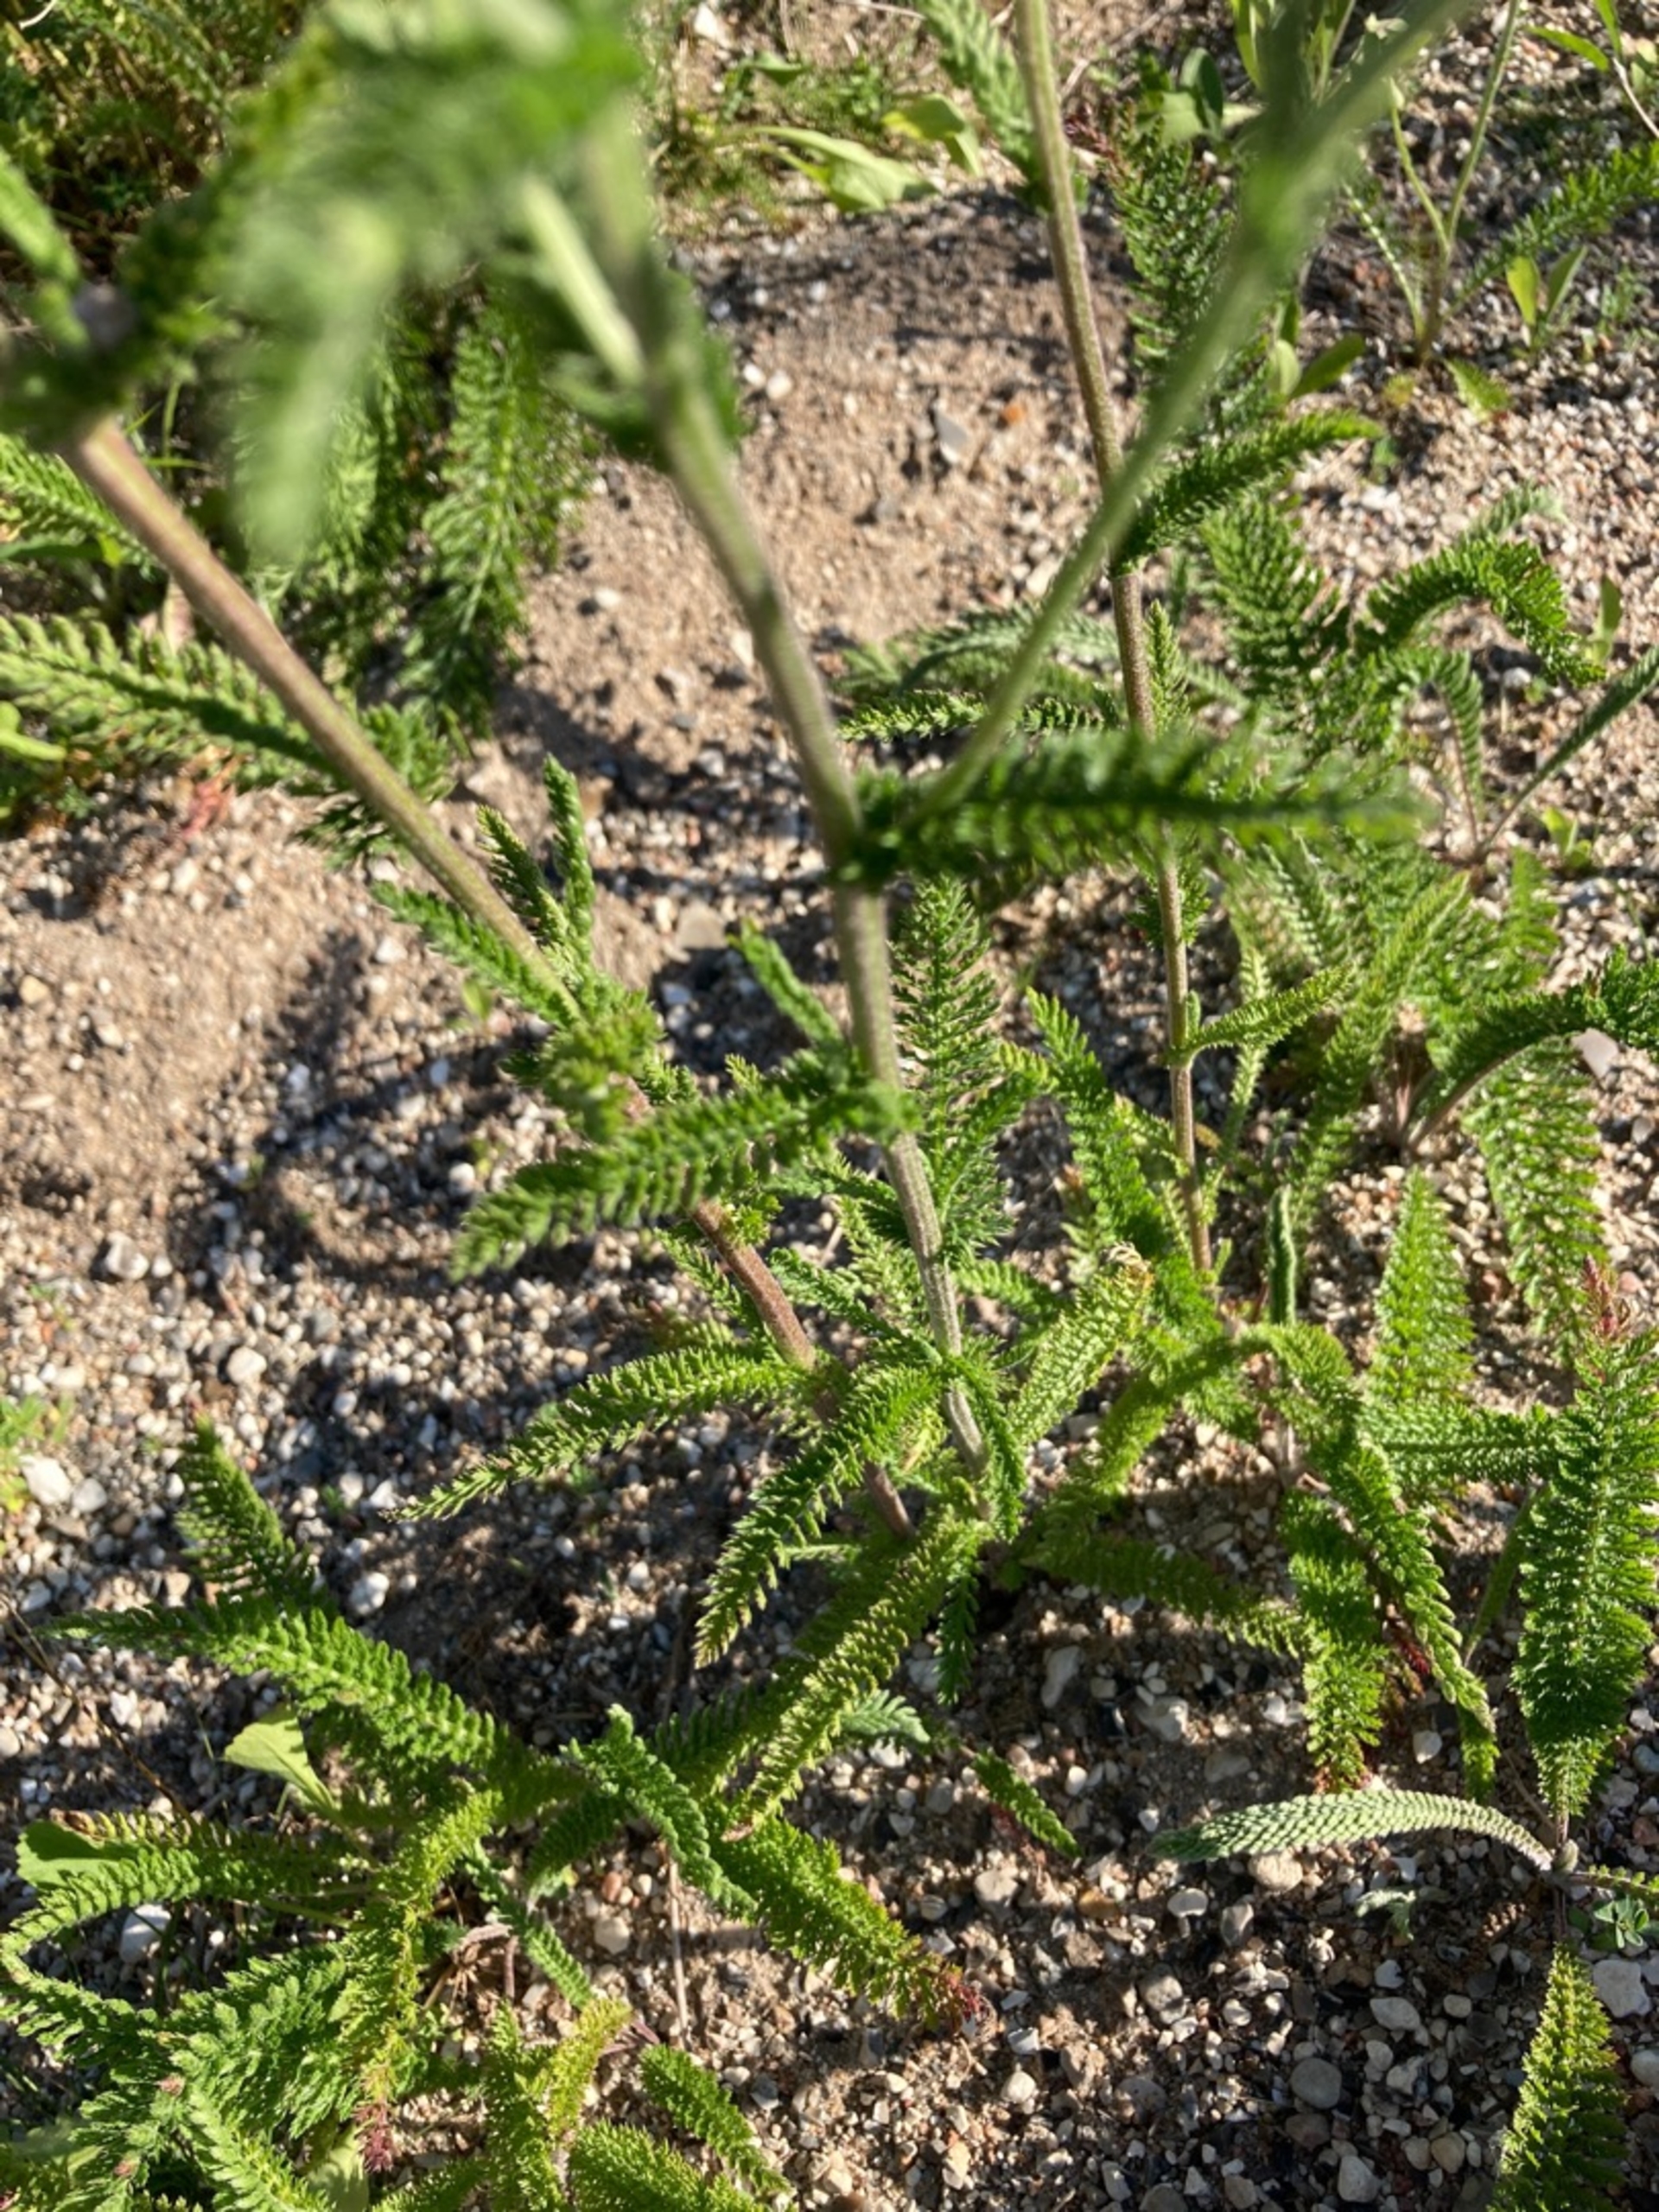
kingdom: Plantae
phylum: Tracheophyta
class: Magnoliopsida
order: Asterales
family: Asteraceae
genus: Achillea
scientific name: Achillea millefolium
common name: Almindelig røllike
